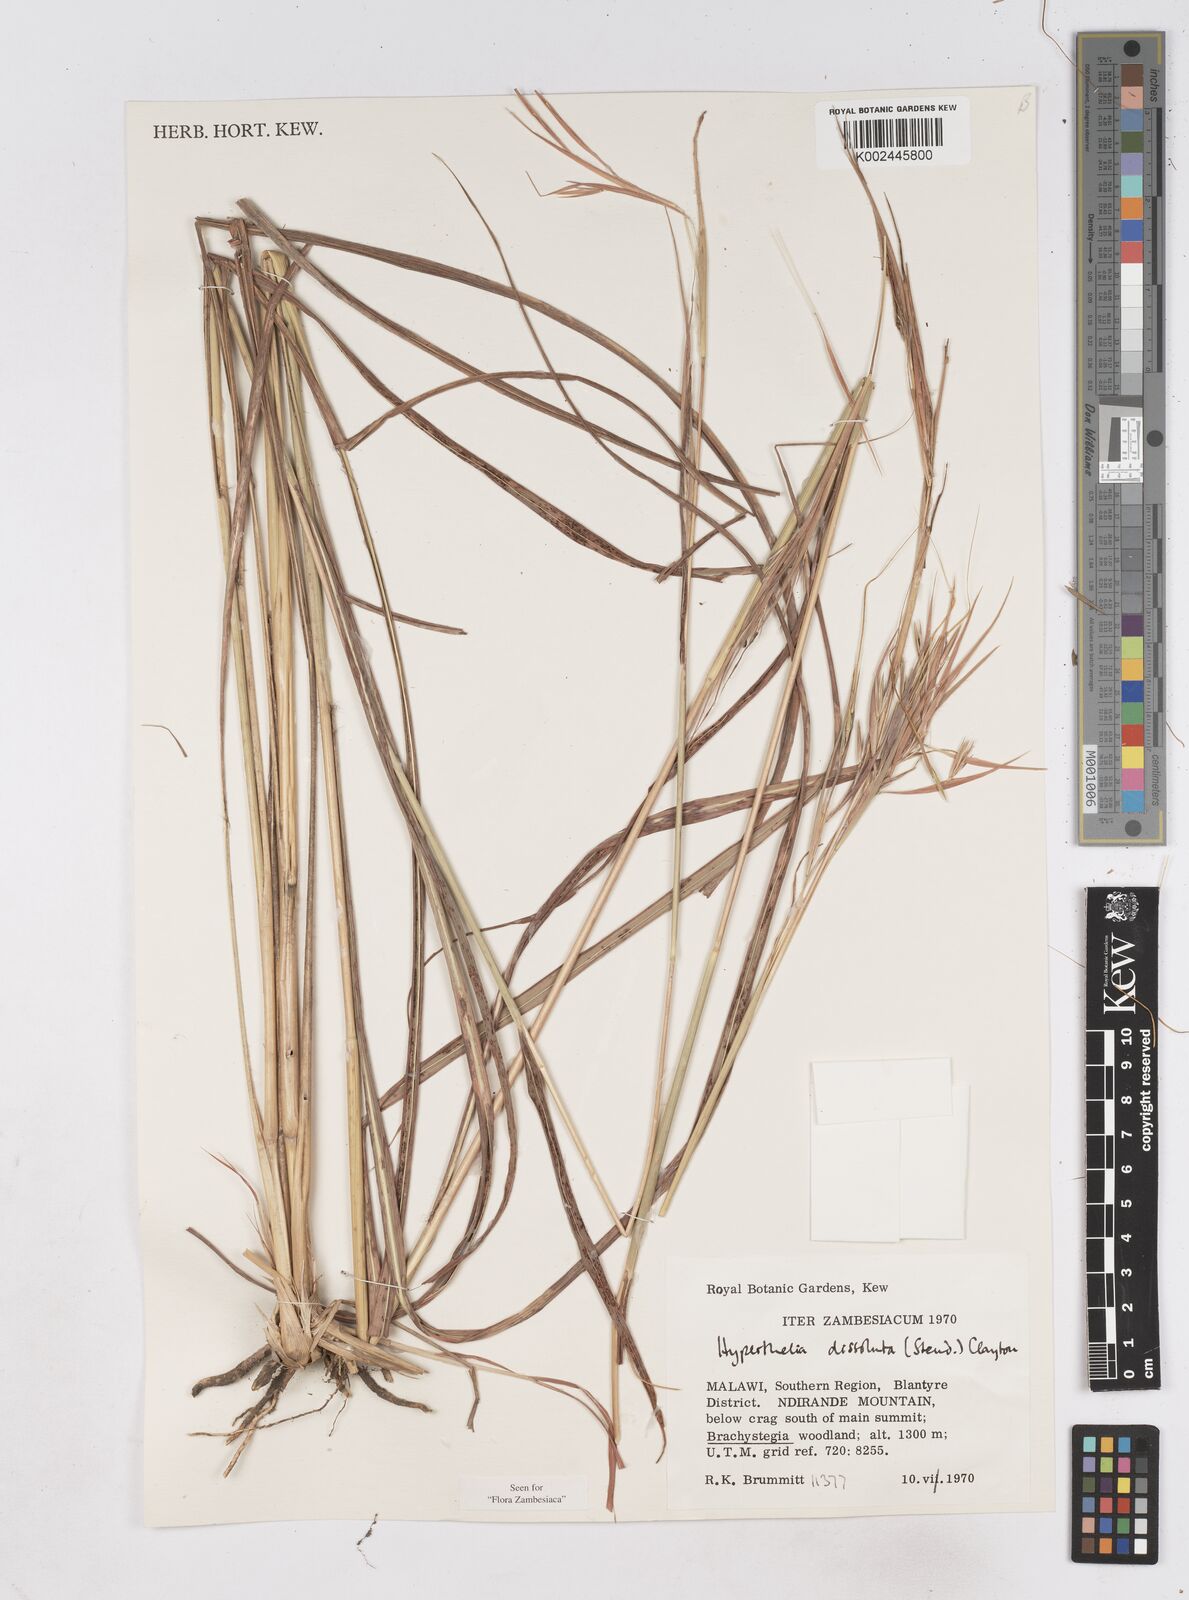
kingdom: Plantae
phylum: Tracheophyta
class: Liliopsida
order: Poales
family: Poaceae
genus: Hyperthelia
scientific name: Hyperthelia dissoluta
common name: Yellow thatching grass
